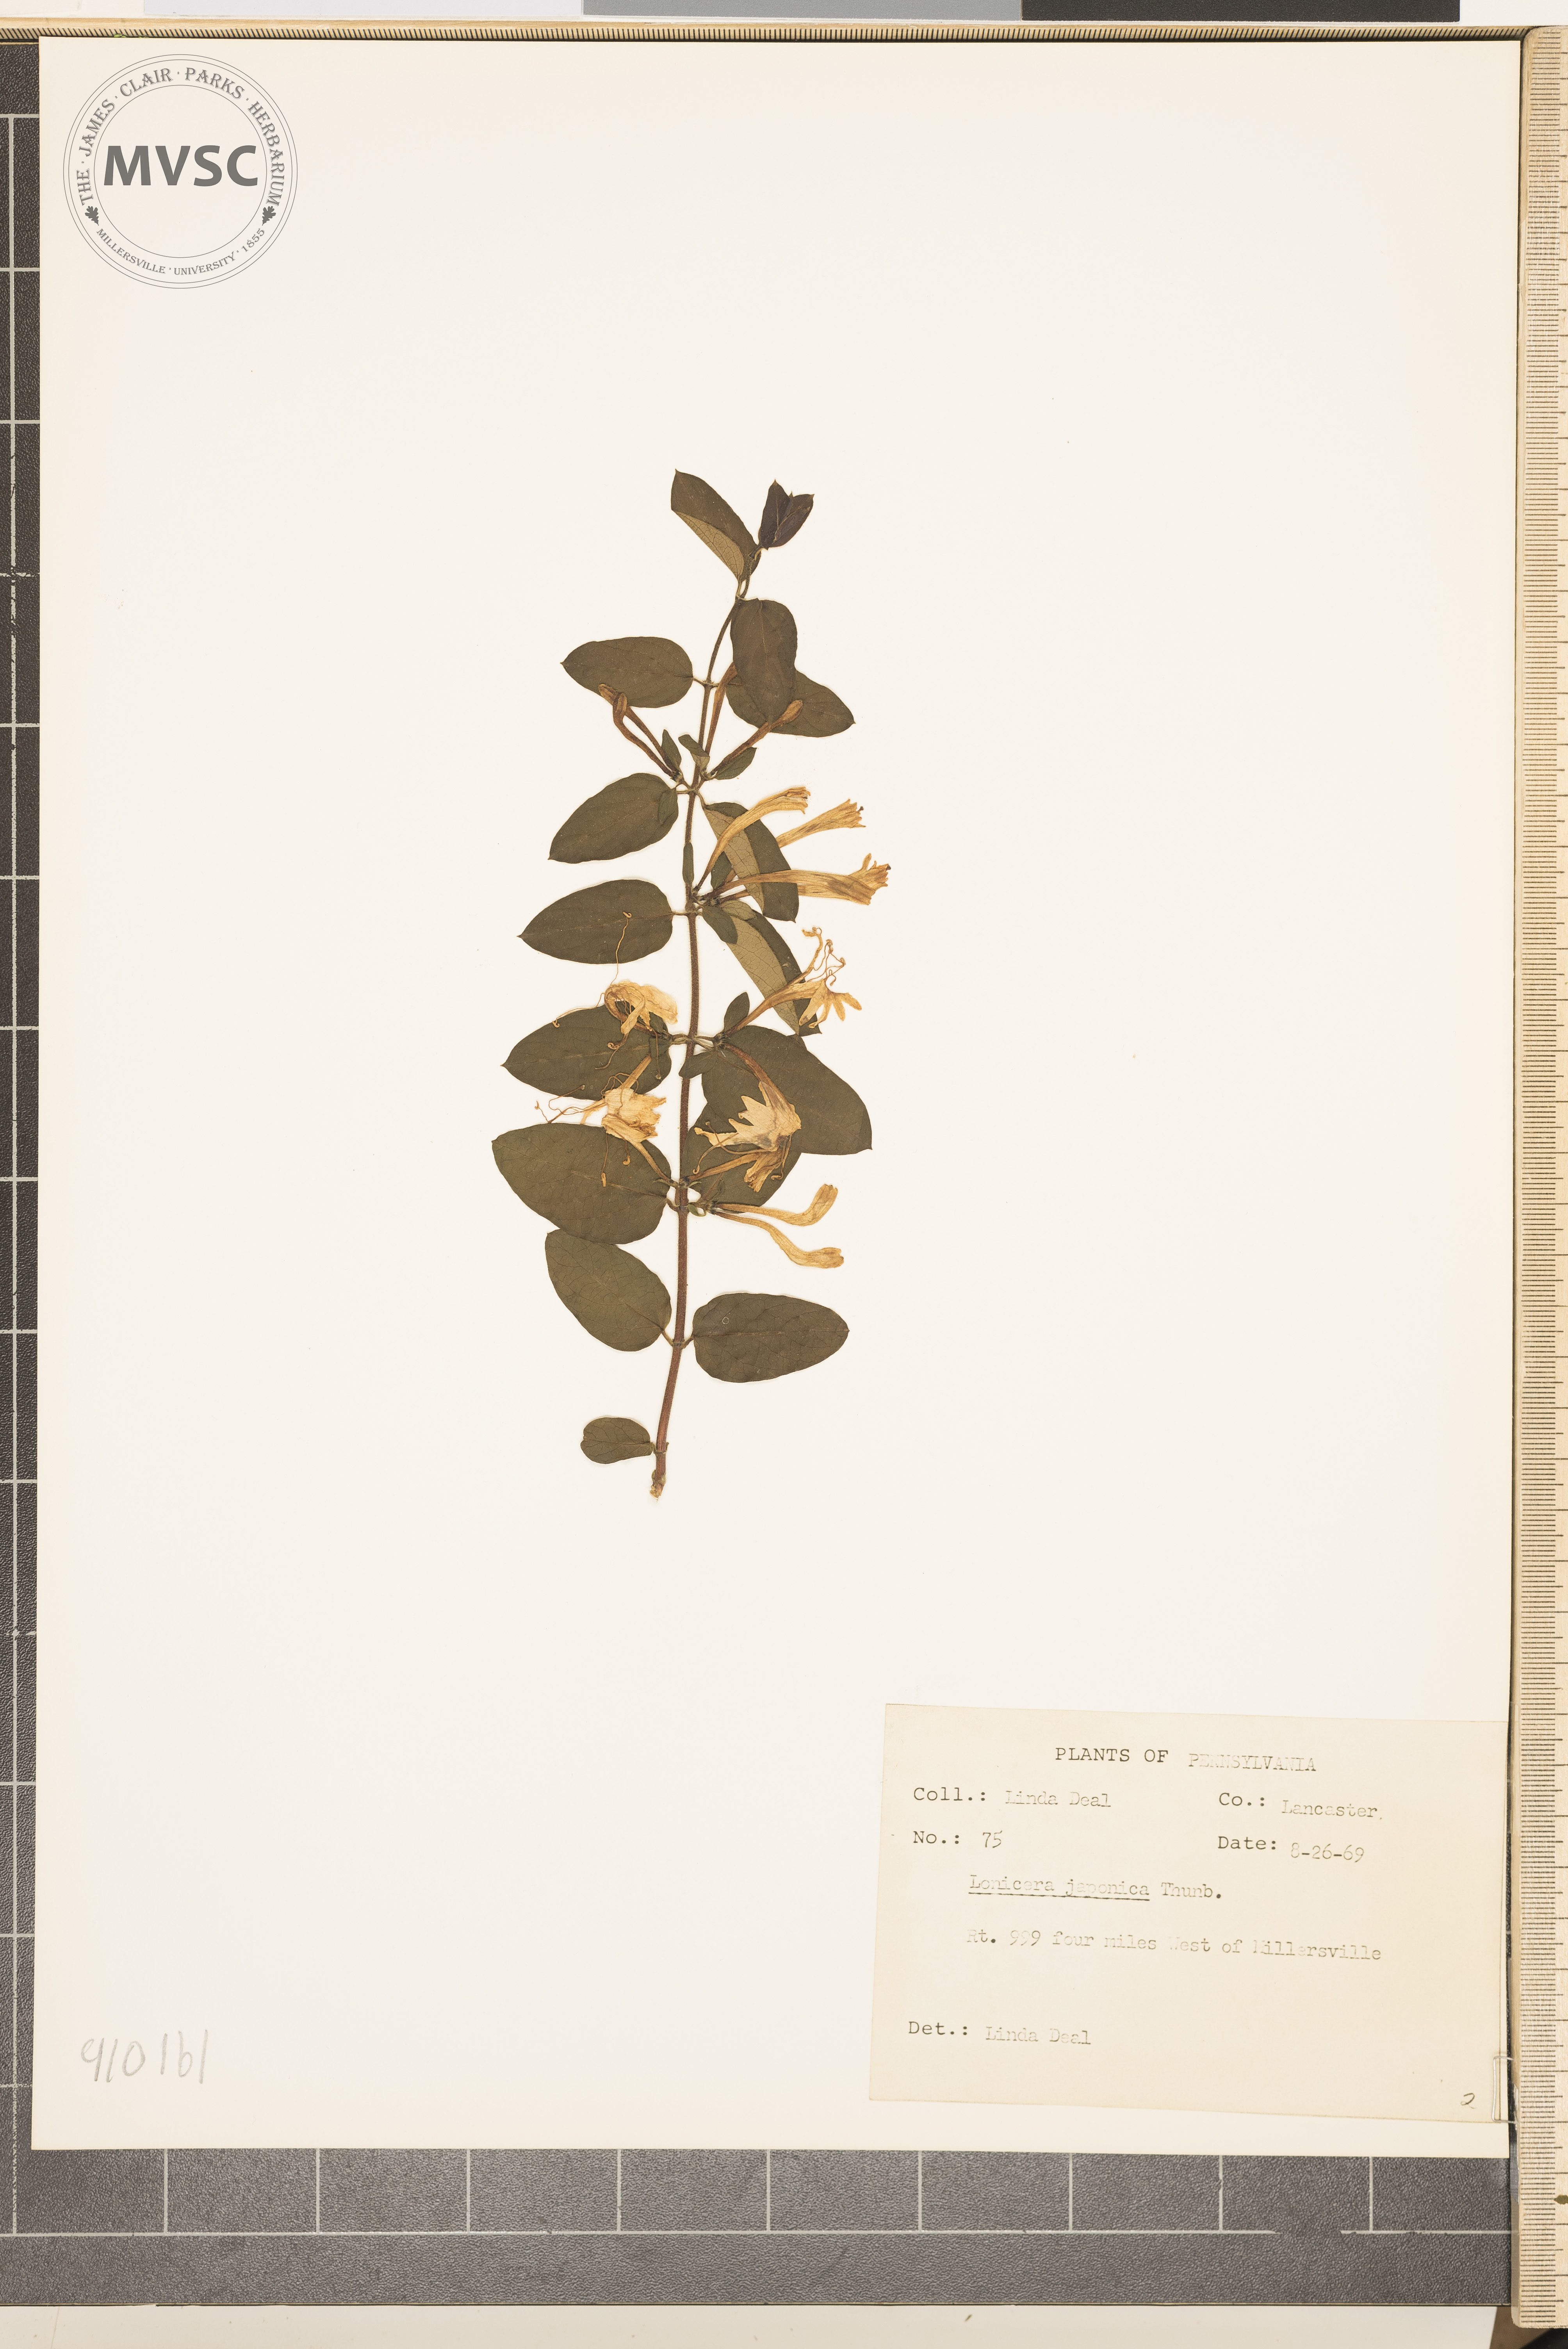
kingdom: Plantae
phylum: Tracheophyta
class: Magnoliopsida
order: Dipsacales
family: Caprifoliaceae
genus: Lonicera
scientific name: Lonicera japonica
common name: Japanese honeysuckle
